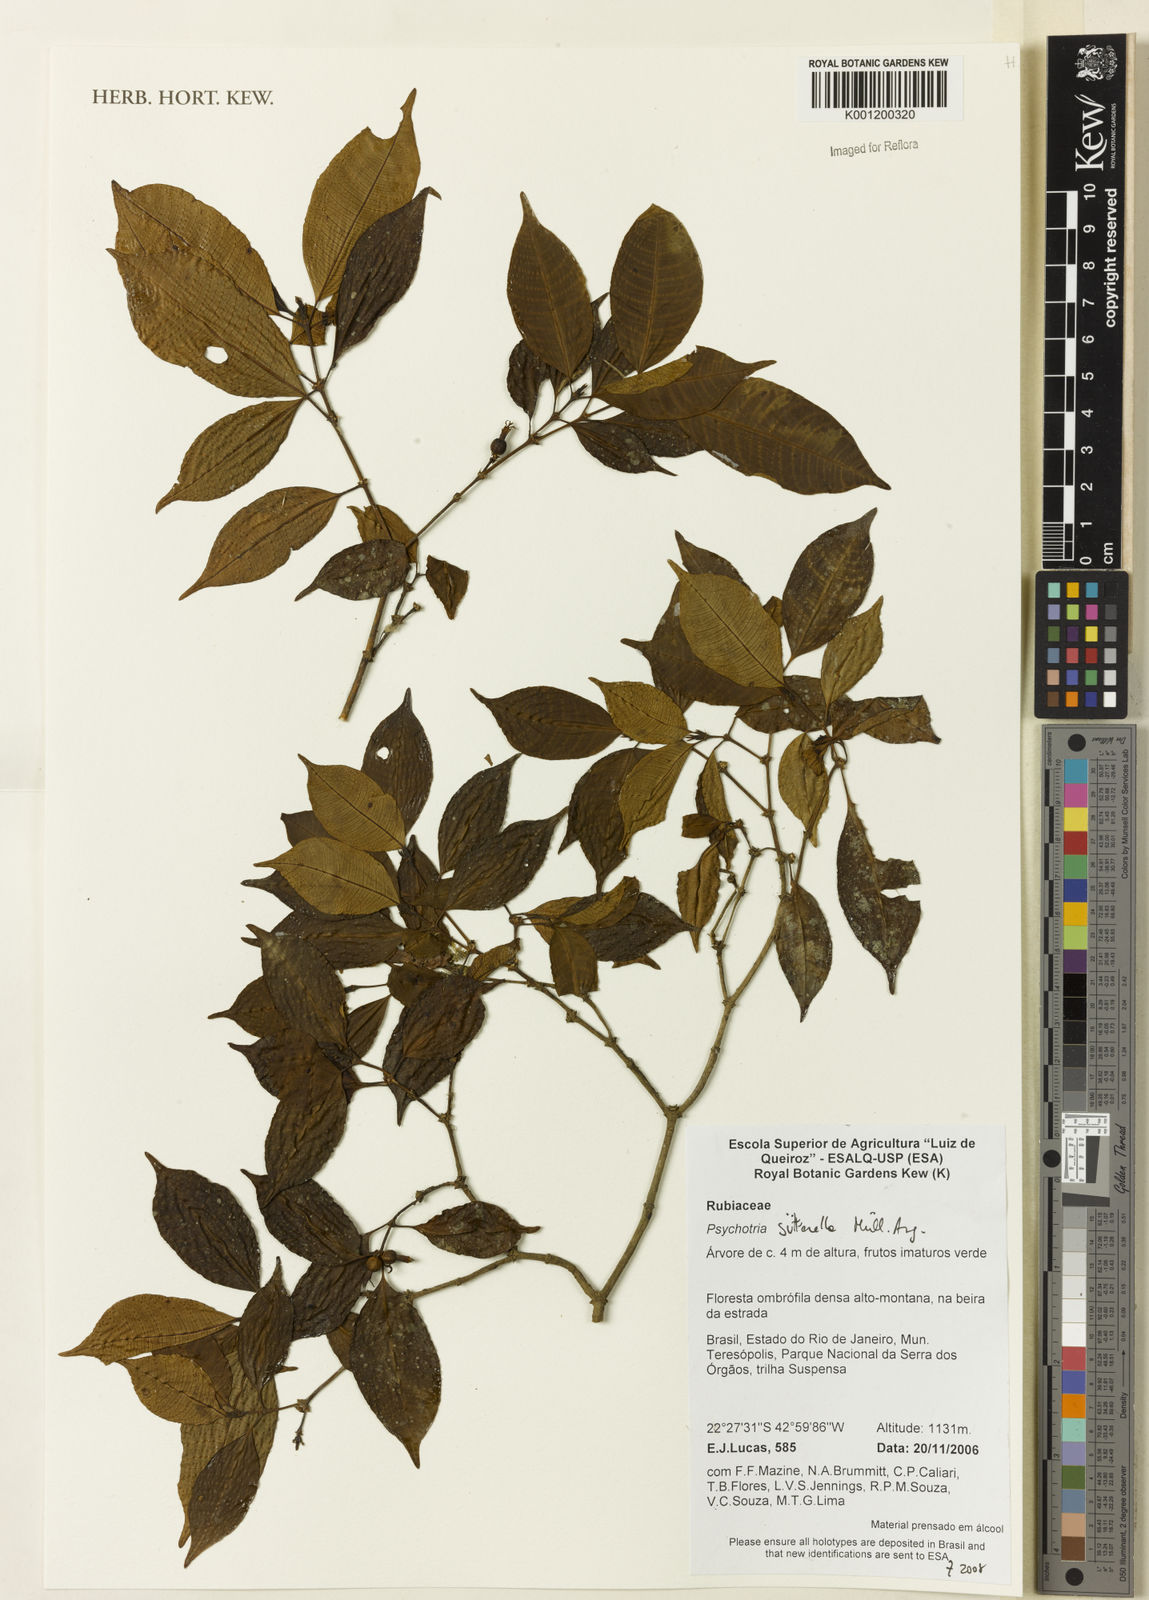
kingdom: Plantae
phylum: Tracheophyta
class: Magnoliopsida
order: Gentianales
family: Rubiaceae
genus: Psychotria
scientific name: Psychotria
